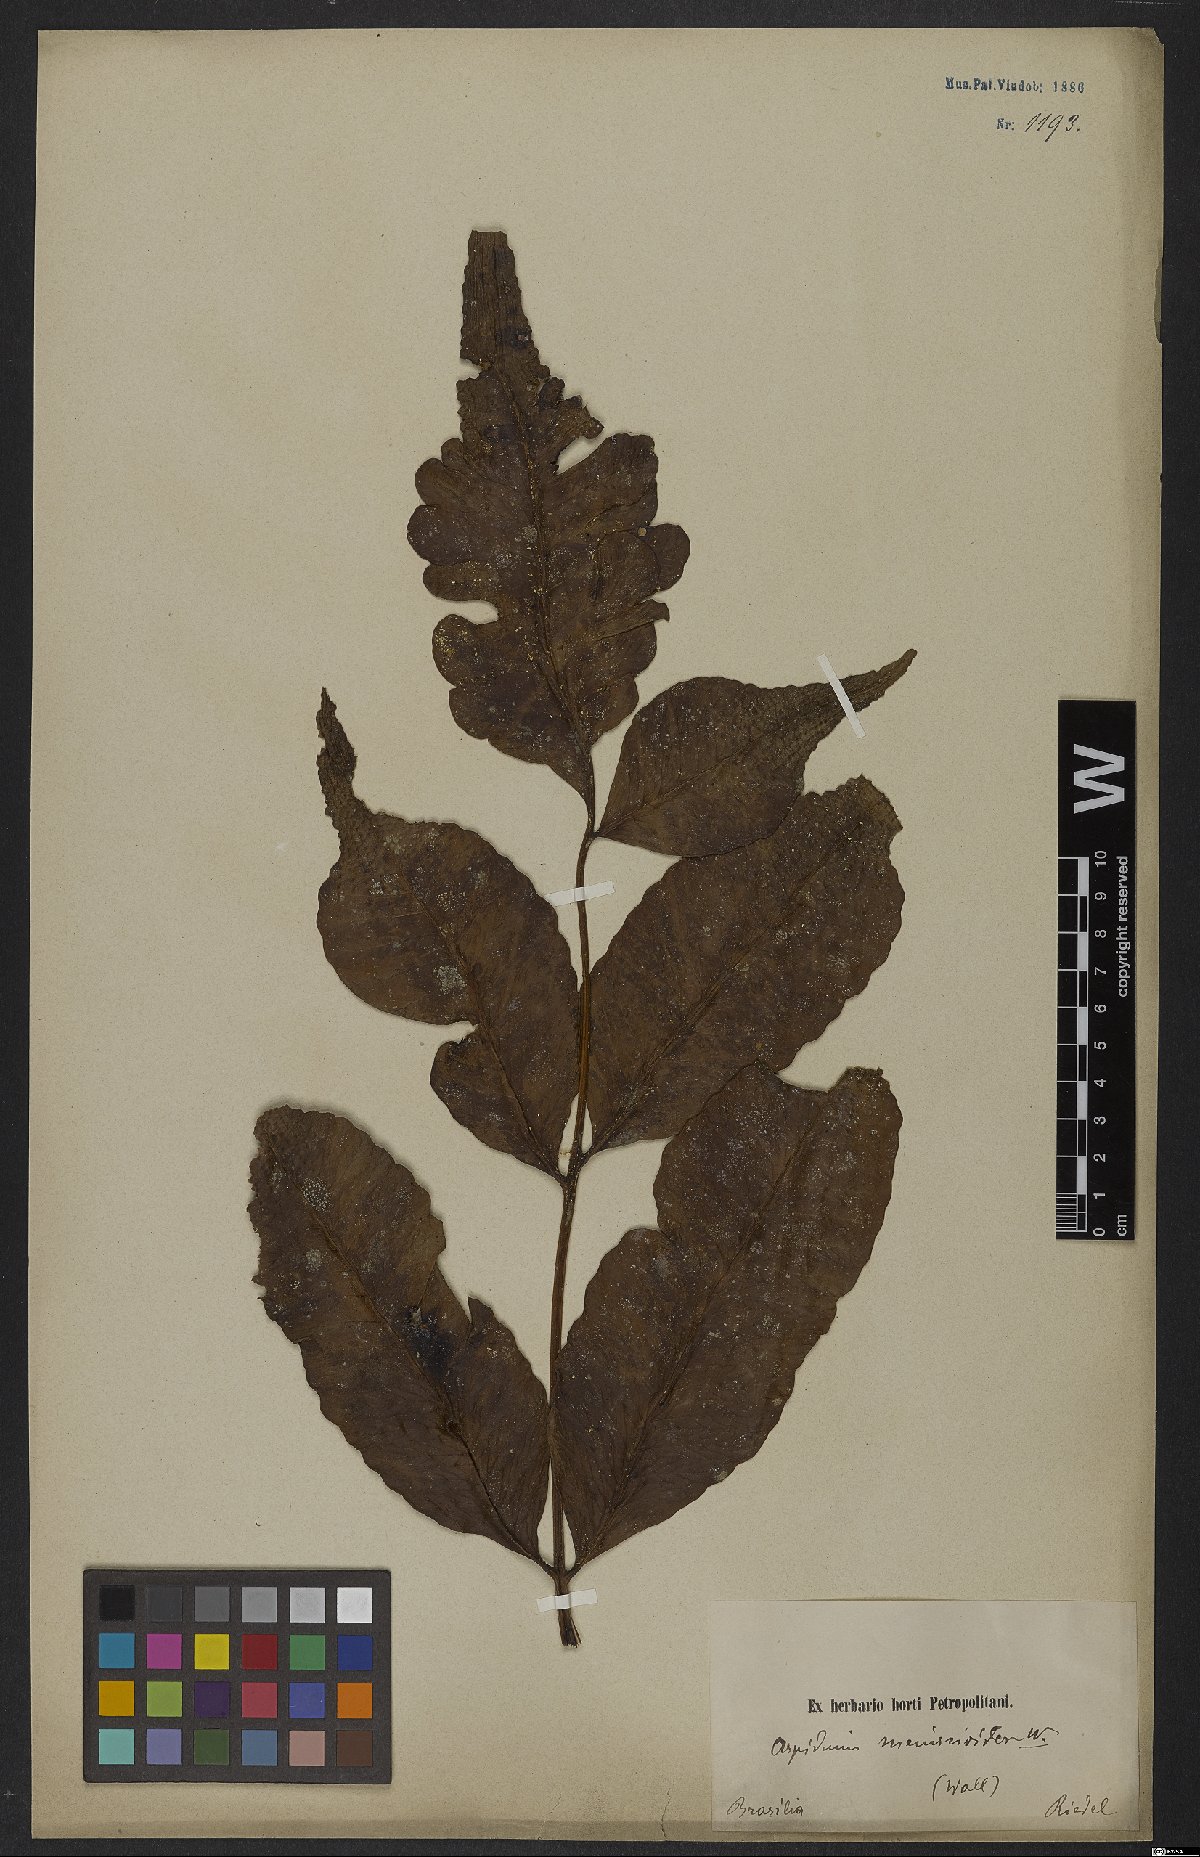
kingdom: Plantae
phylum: Tracheophyta
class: Polypodiopsida
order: Polypodiales
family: Dryopteridaceae
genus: Cyclodium
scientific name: Cyclodium meniscioides
